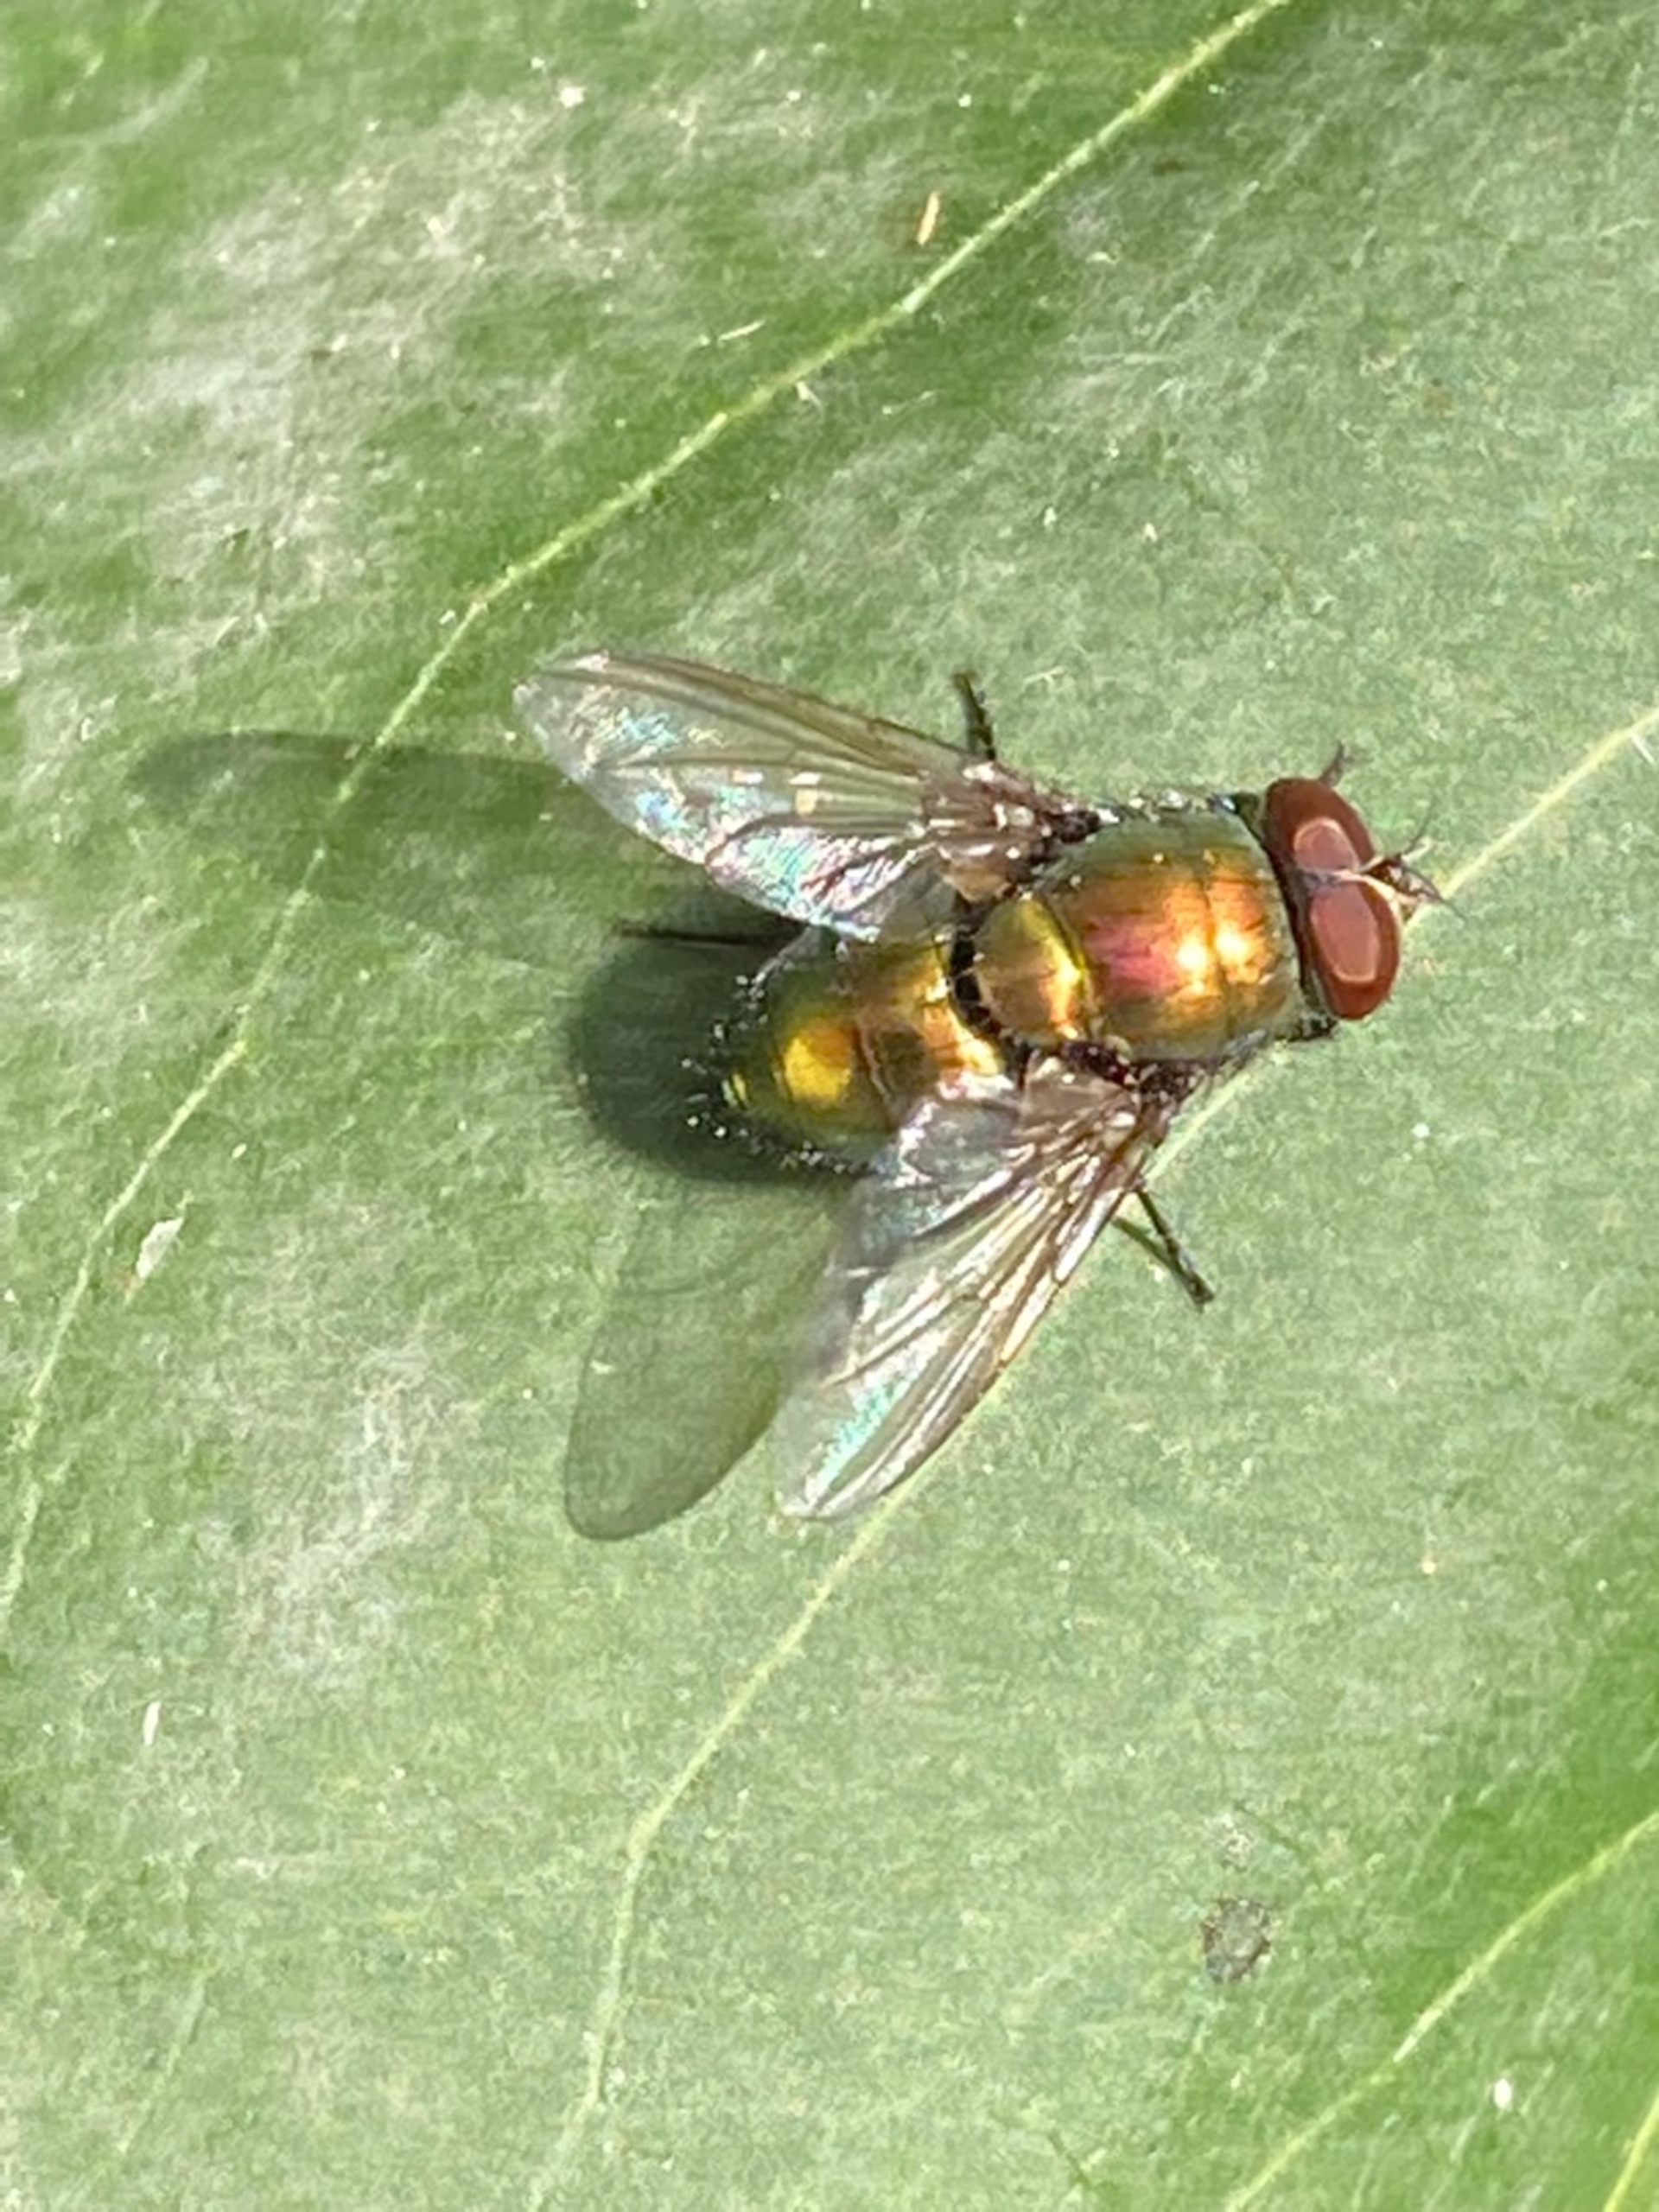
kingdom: Animalia
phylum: Arthropoda
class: Insecta
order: Diptera
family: Calliphoridae
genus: Lucilia
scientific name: Lucilia
